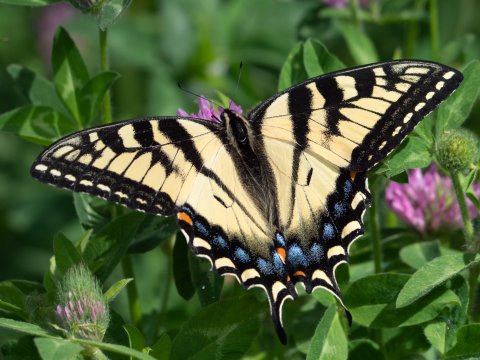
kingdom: Animalia
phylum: Arthropoda
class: Insecta
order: Lepidoptera
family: Papilionidae
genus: Pterourus
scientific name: Pterourus canadensis
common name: Canadian Tiger Swallowtail
